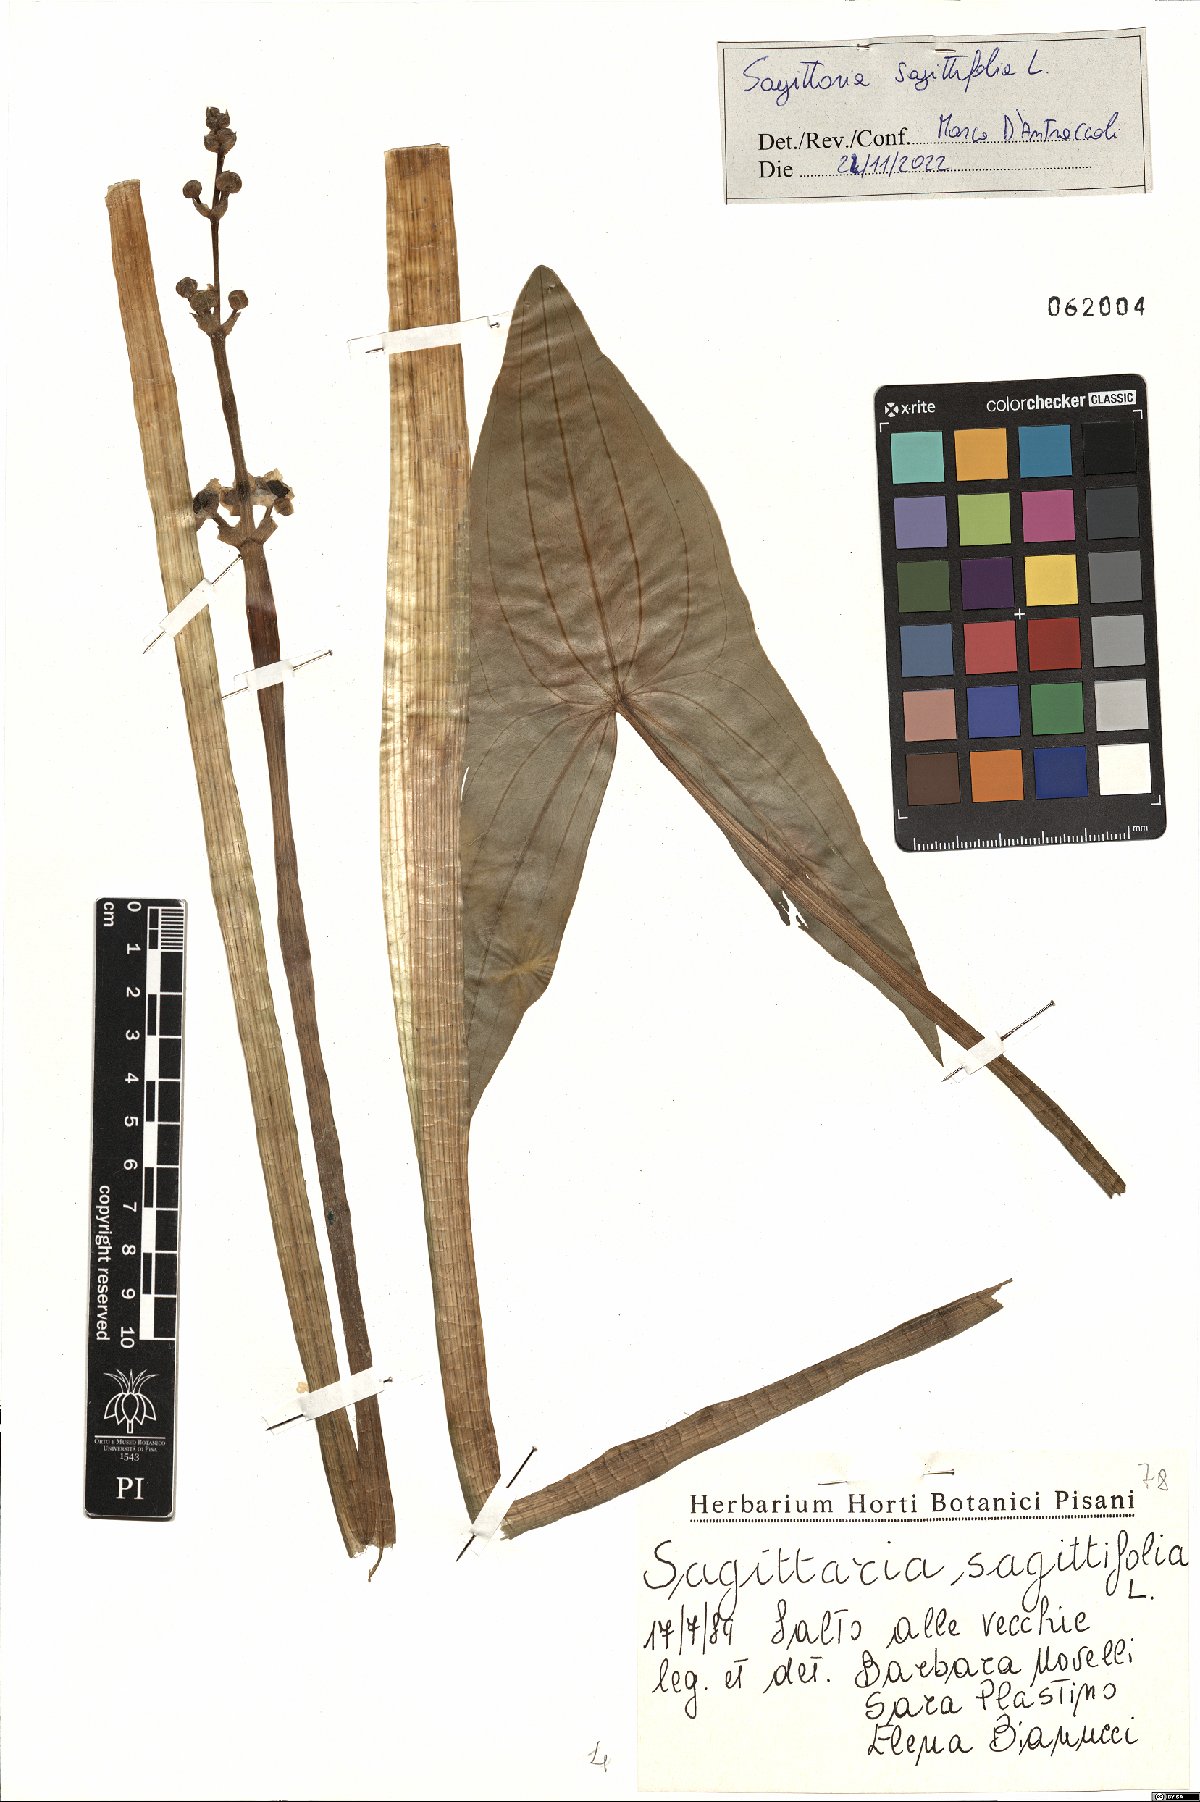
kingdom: Plantae
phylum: Tracheophyta
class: Liliopsida
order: Alismatales
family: Alismataceae
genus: Sagittaria
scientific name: Sagittaria sagittifolia
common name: Arrowhead
